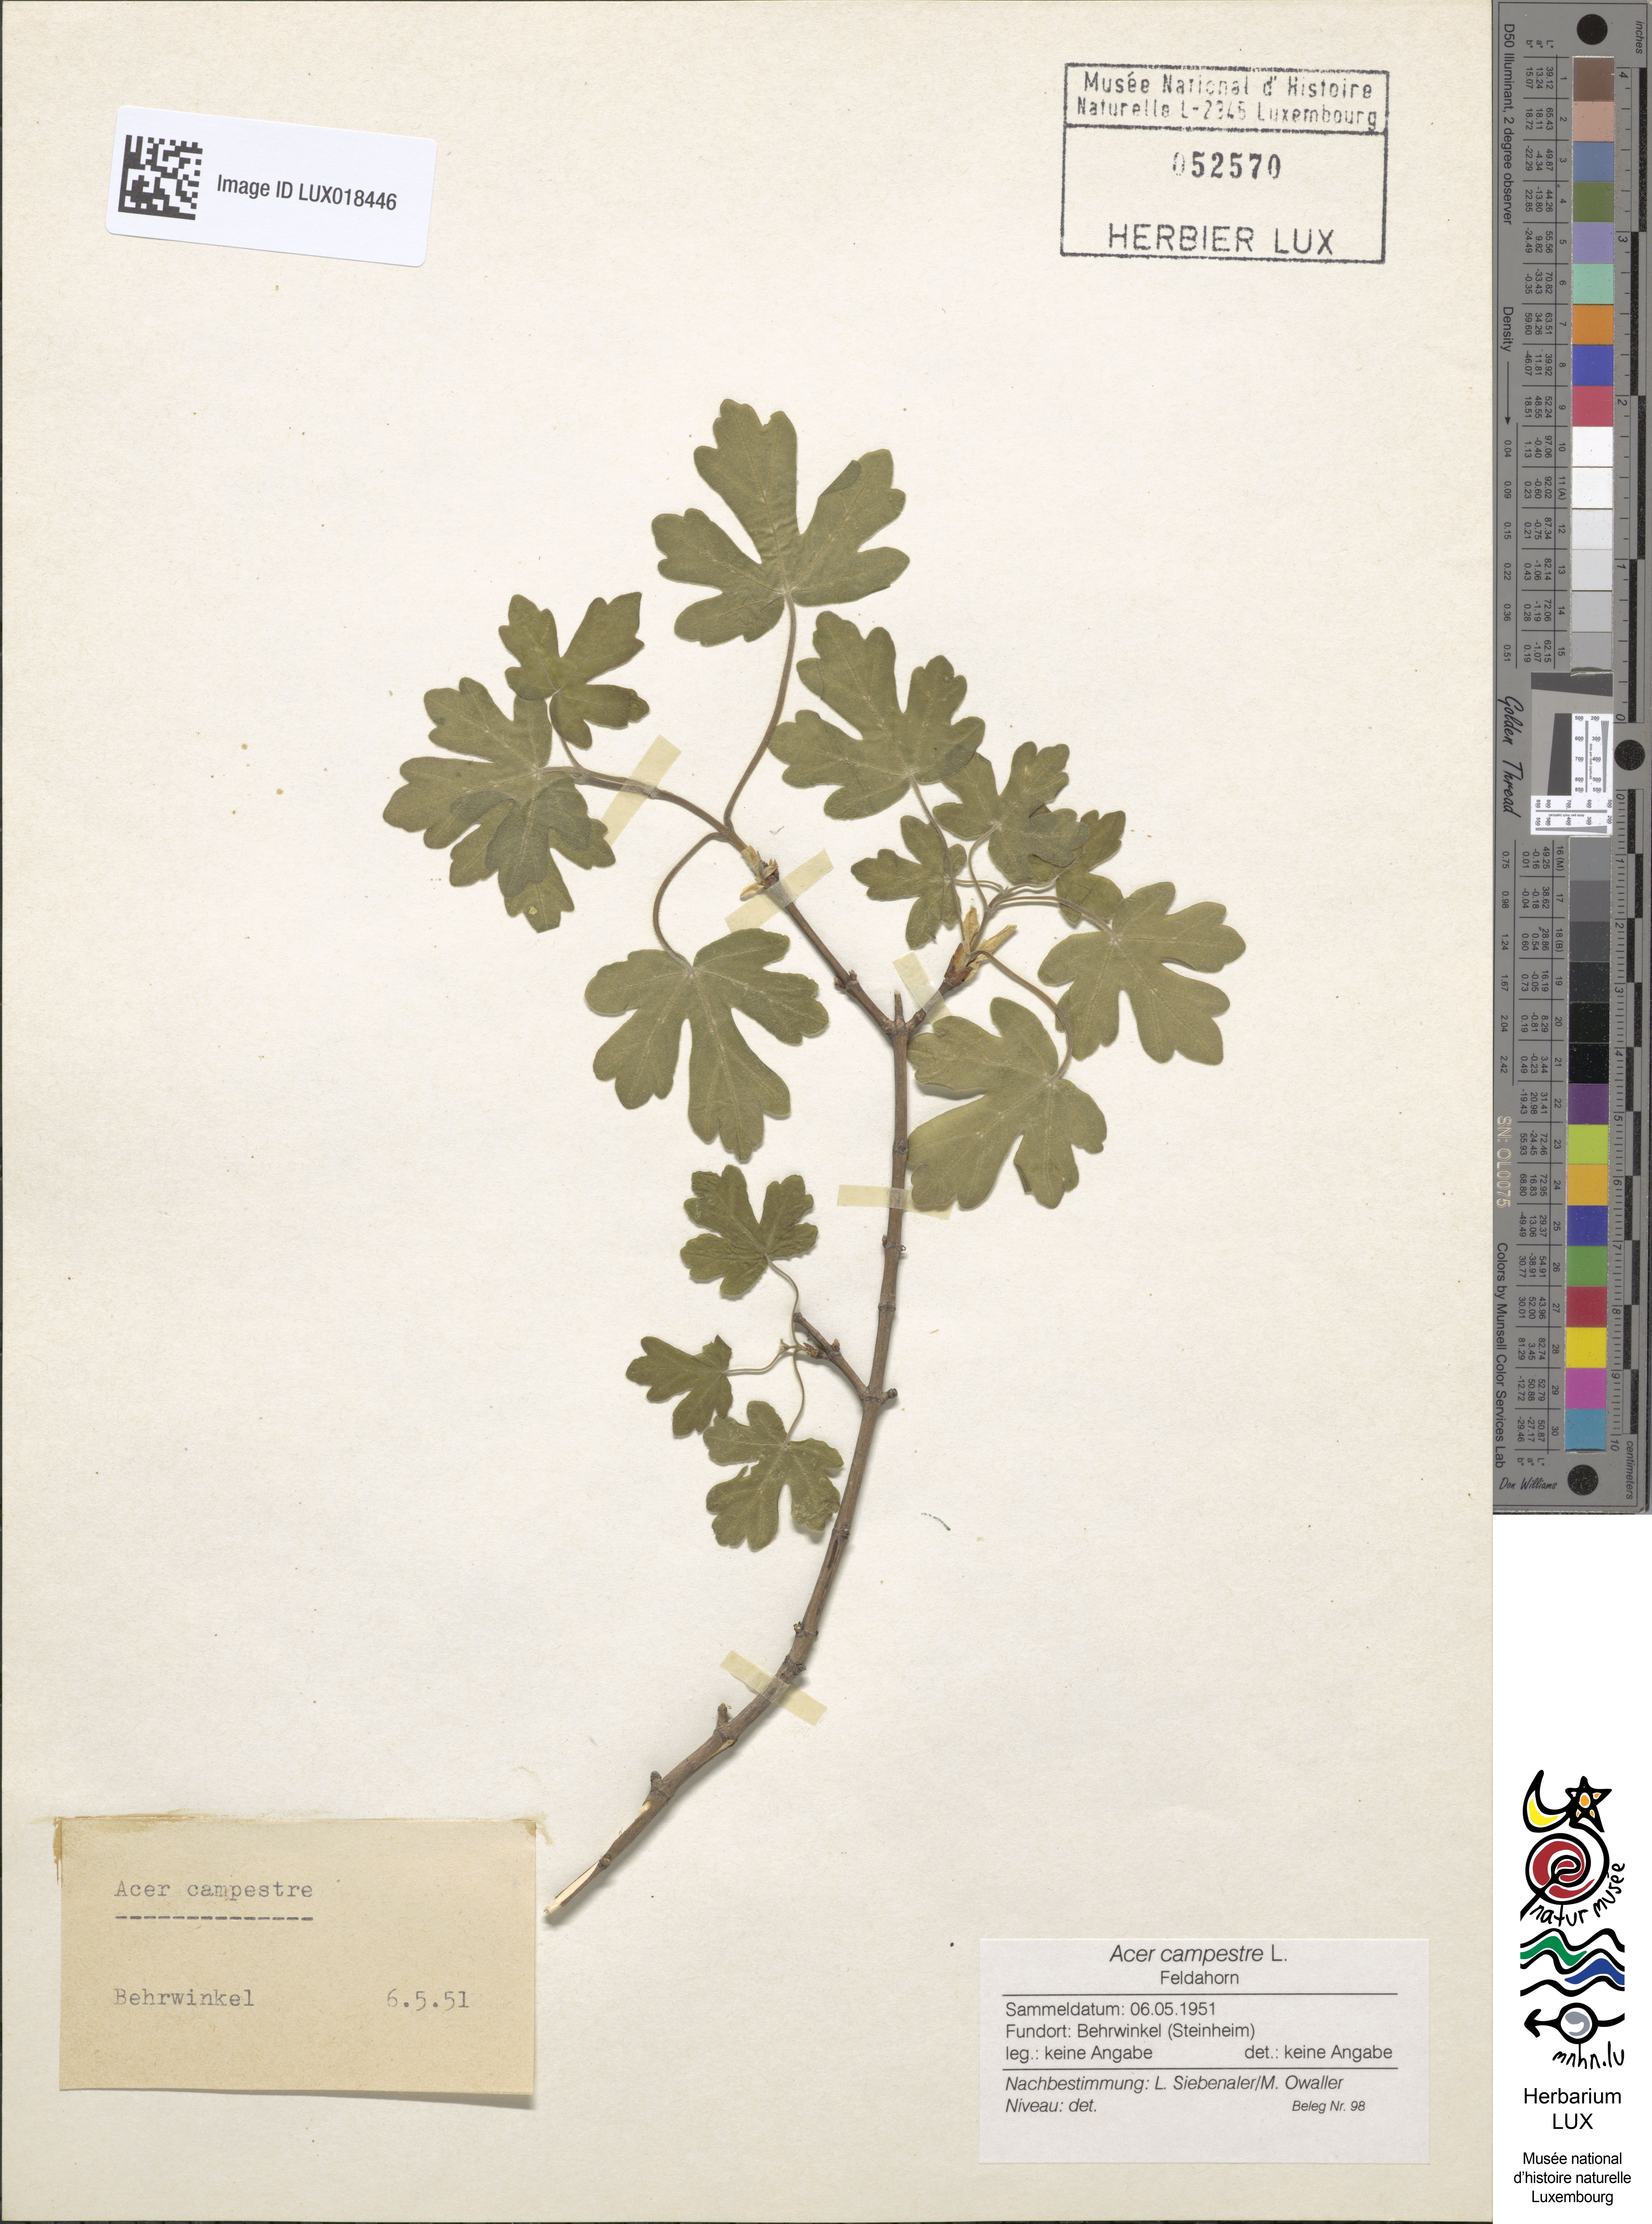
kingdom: Plantae
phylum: Tracheophyta
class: Magnoliopsida
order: Sapindales
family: Sapindaceae
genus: Acer
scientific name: Acer campestre
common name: Field maple
